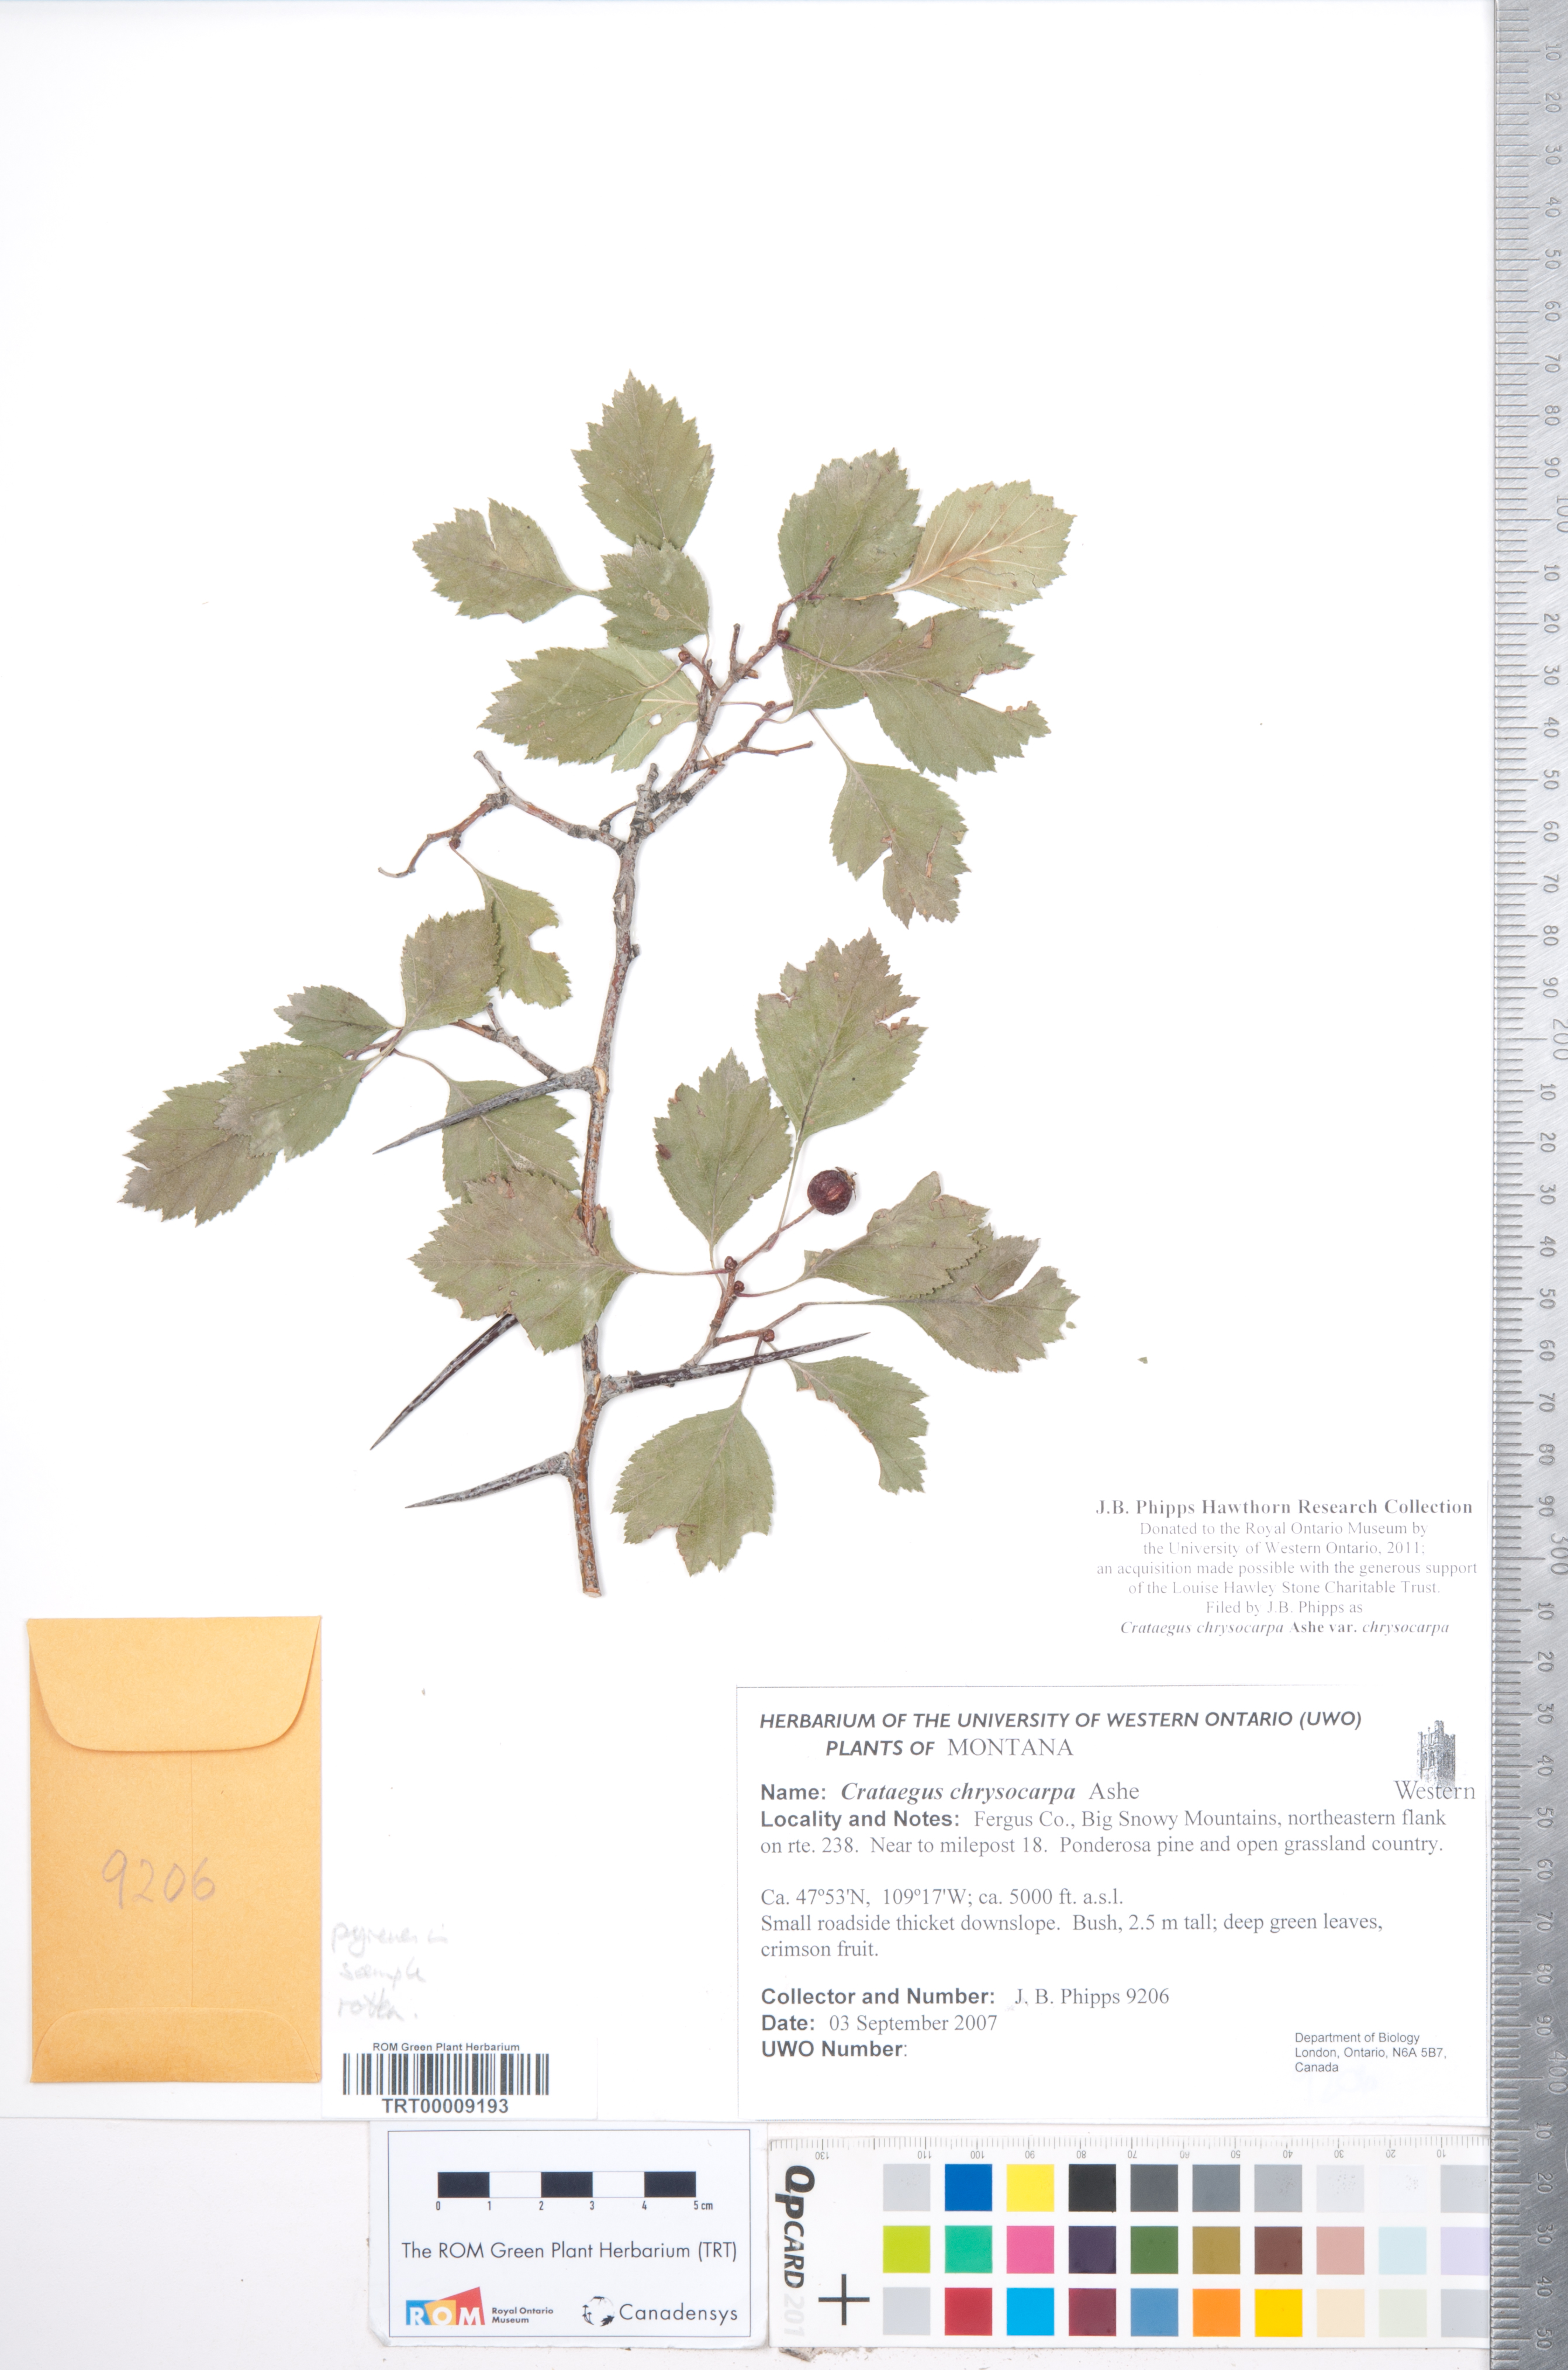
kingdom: Plantae
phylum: Tracheophyta
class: Magnoliopsida
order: Rosales
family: Rosaceae
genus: Crataegus
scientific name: Crataegus chrysocarpa
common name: Fire-berry hawthorn
